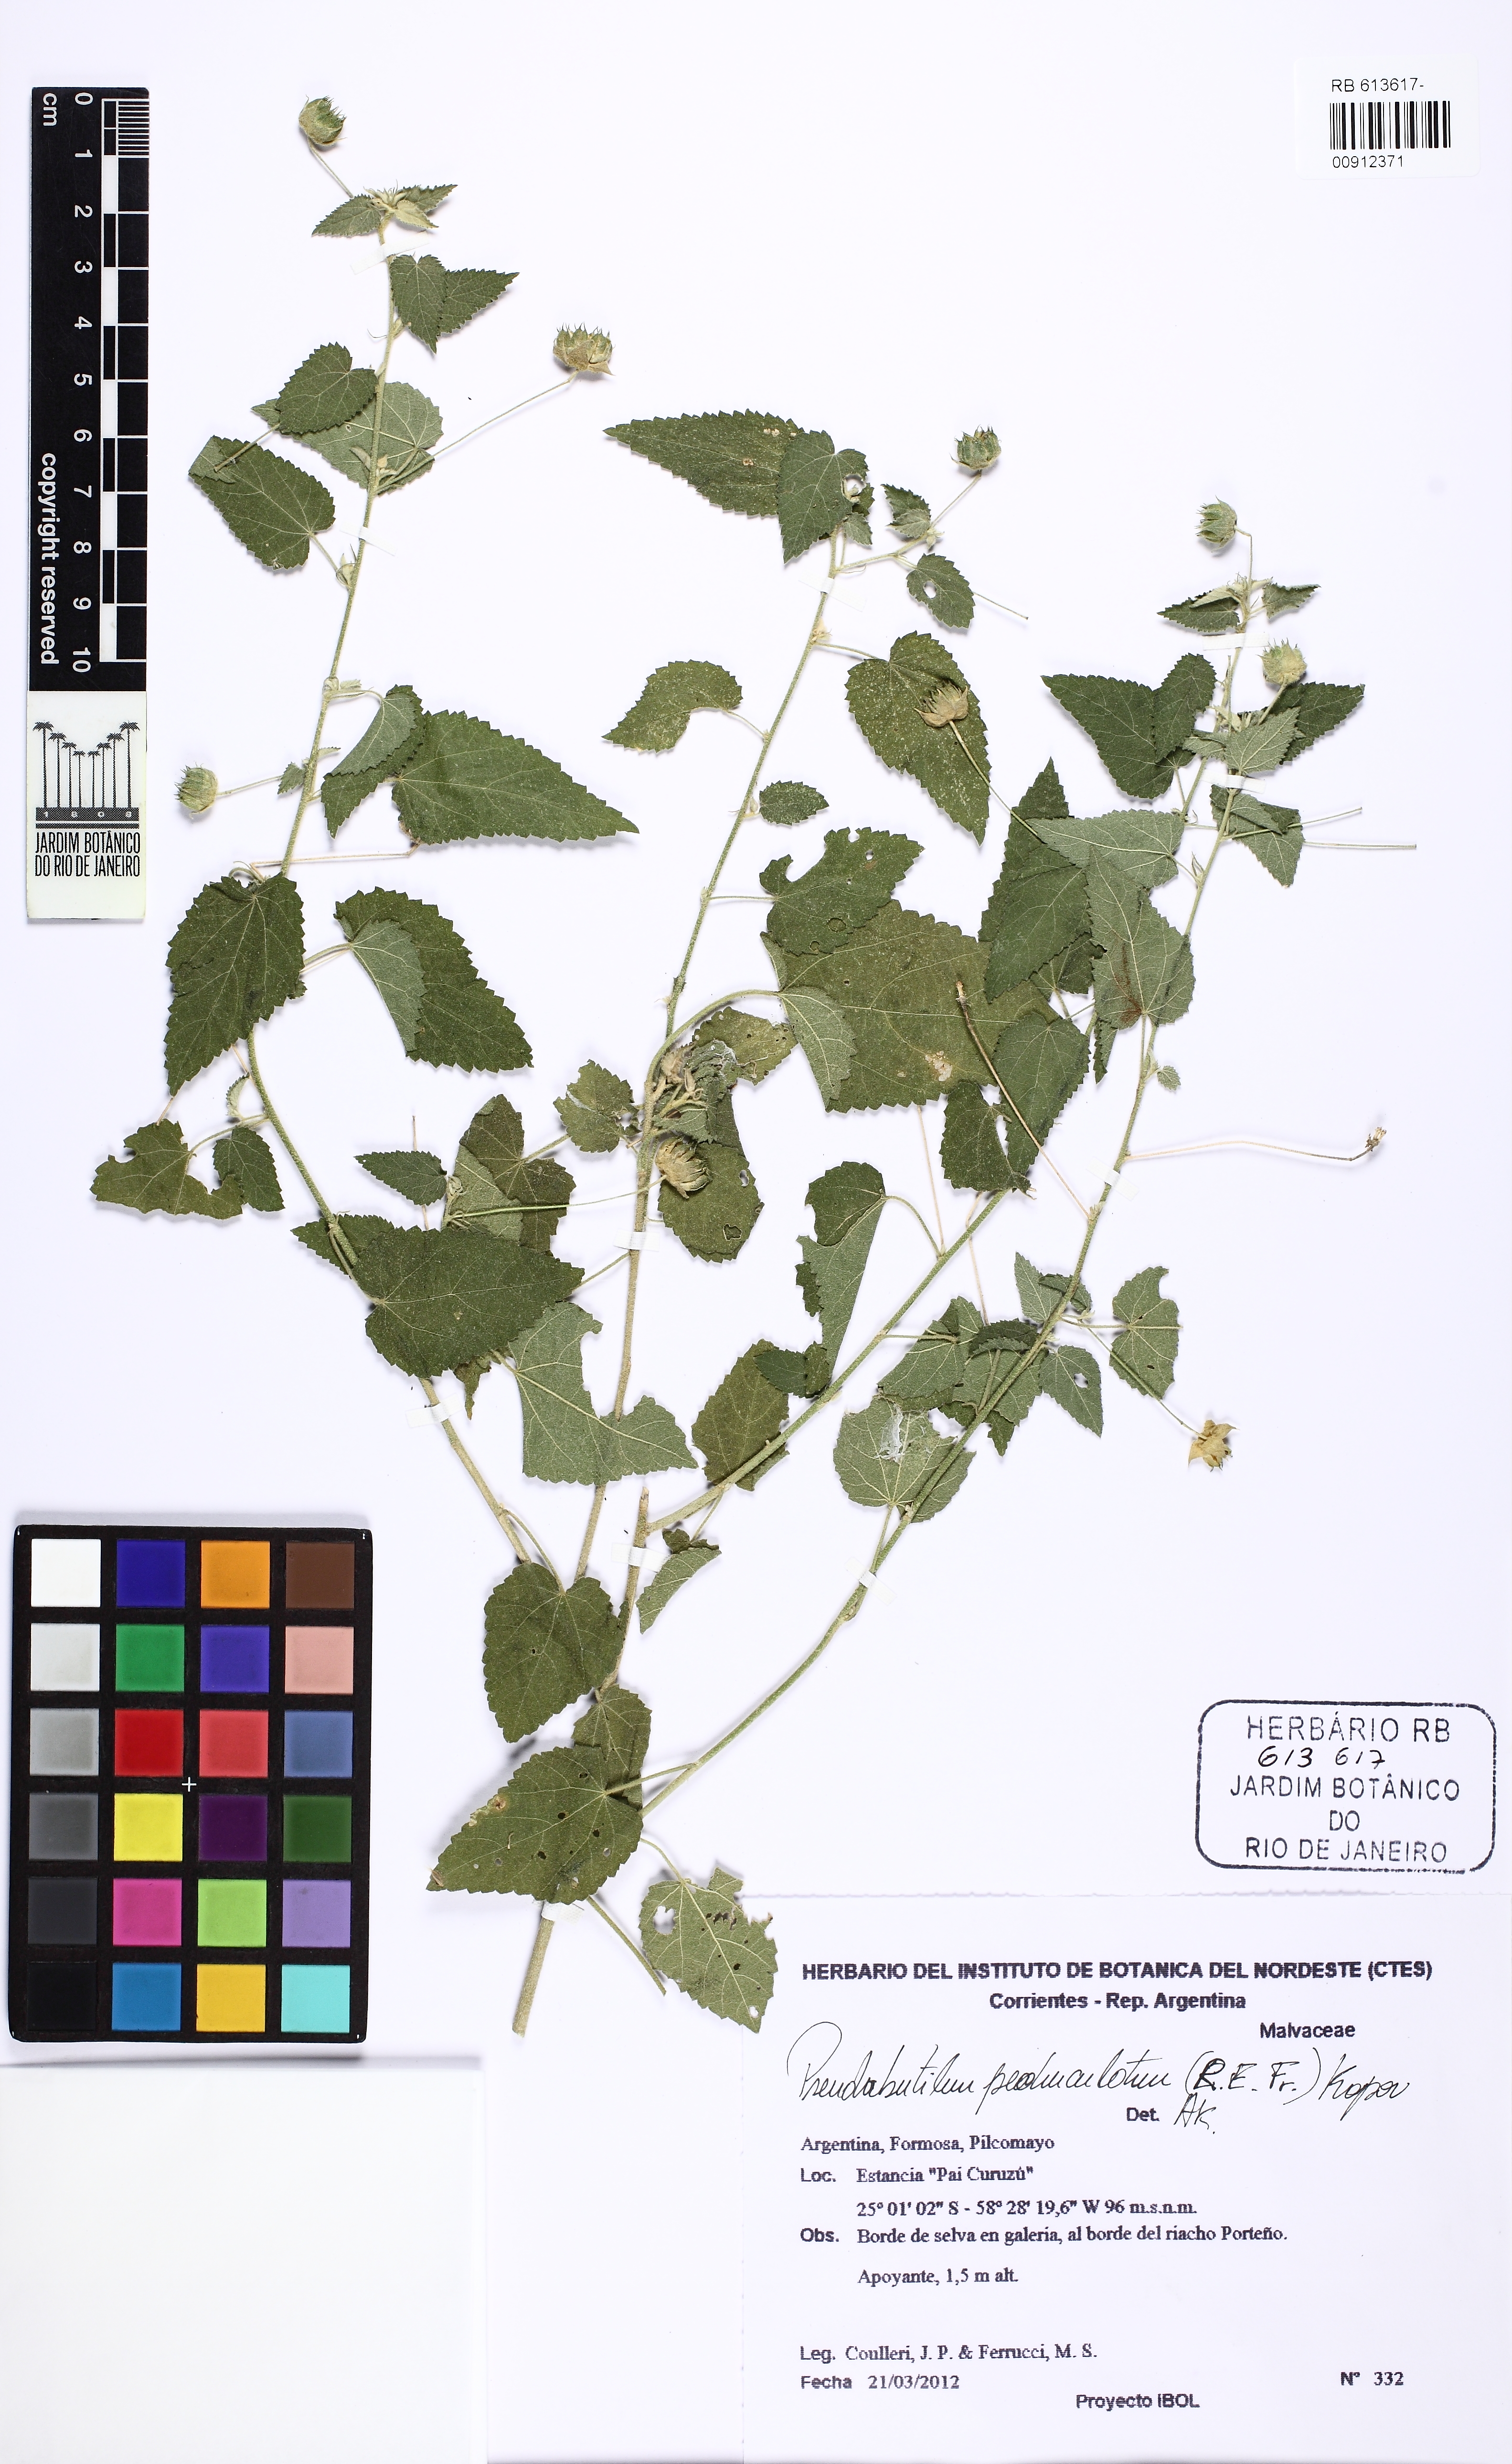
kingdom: Plantae
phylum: Tracheophyta
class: Magnoliopsida
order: Malvales
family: Malvaceae
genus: Pseudabutilon
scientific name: Pseudabutilon
